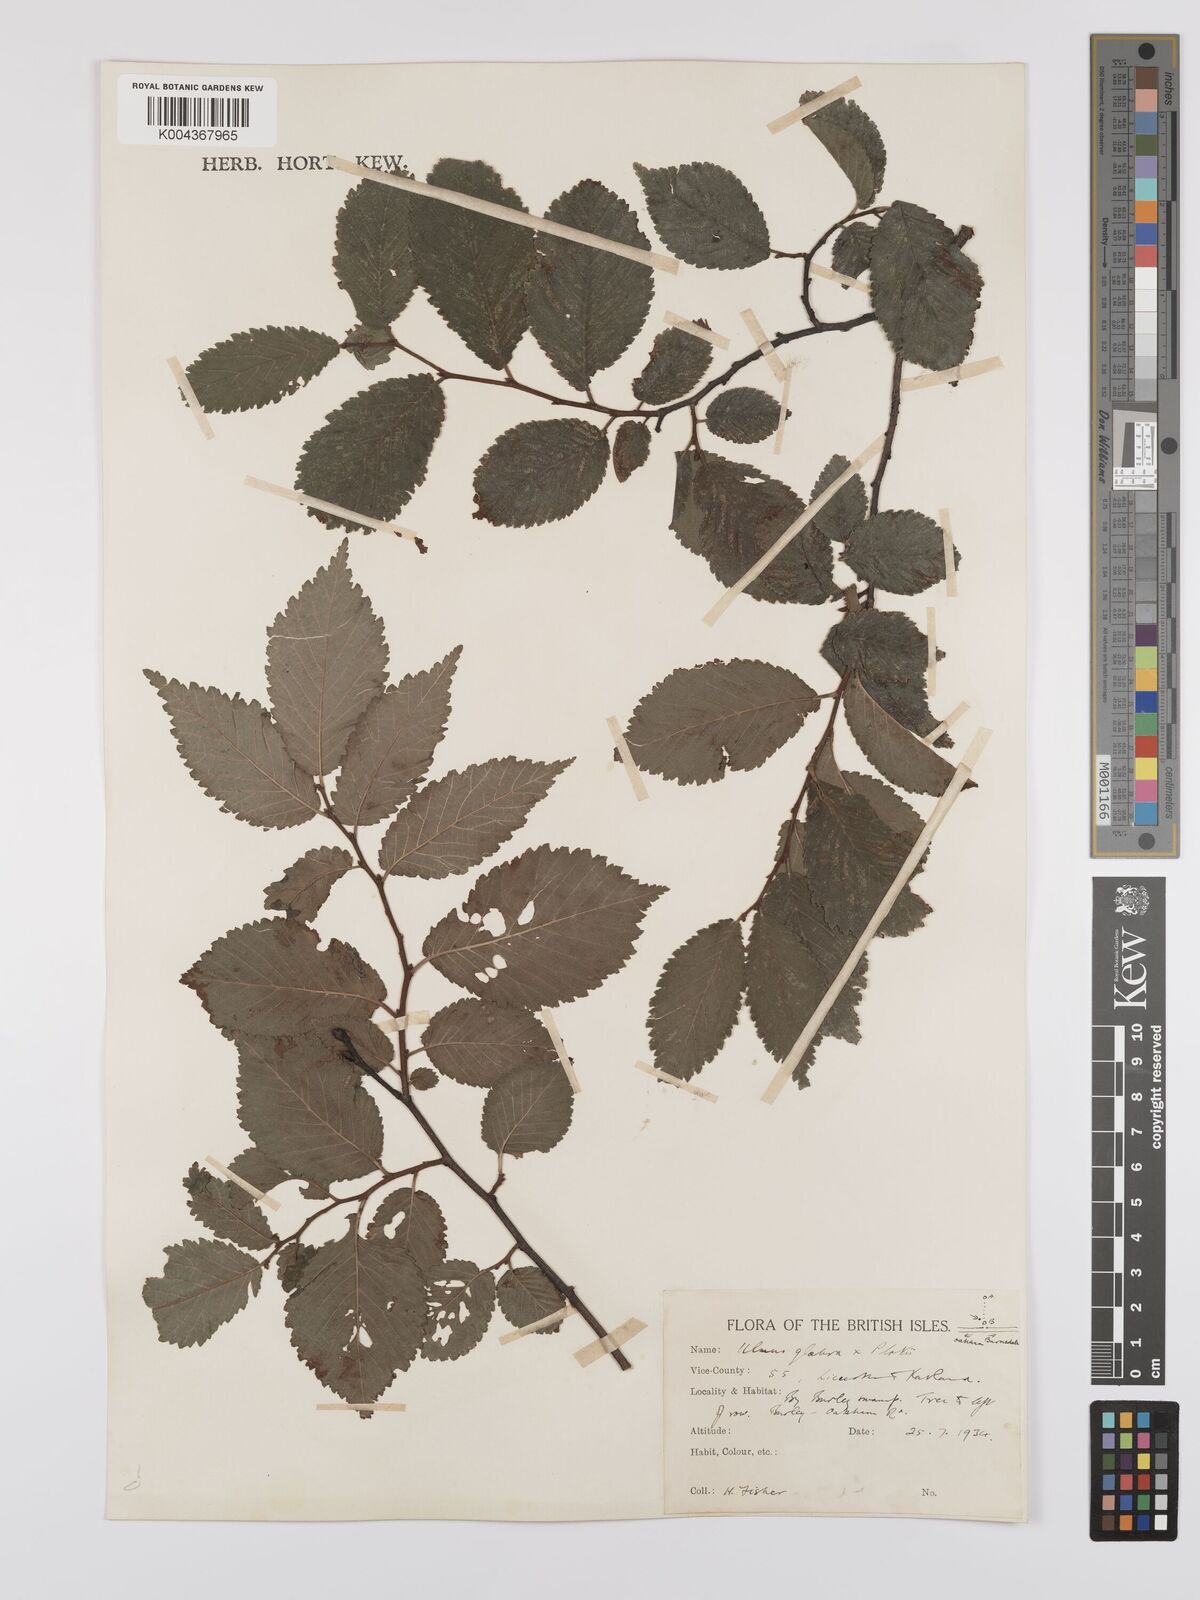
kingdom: Plantae
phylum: Tracheophyta
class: Magnoliopsida
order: Rosales
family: Ulmaceae
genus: Ulmus
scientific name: Ulmus glabra
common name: Wych elm
